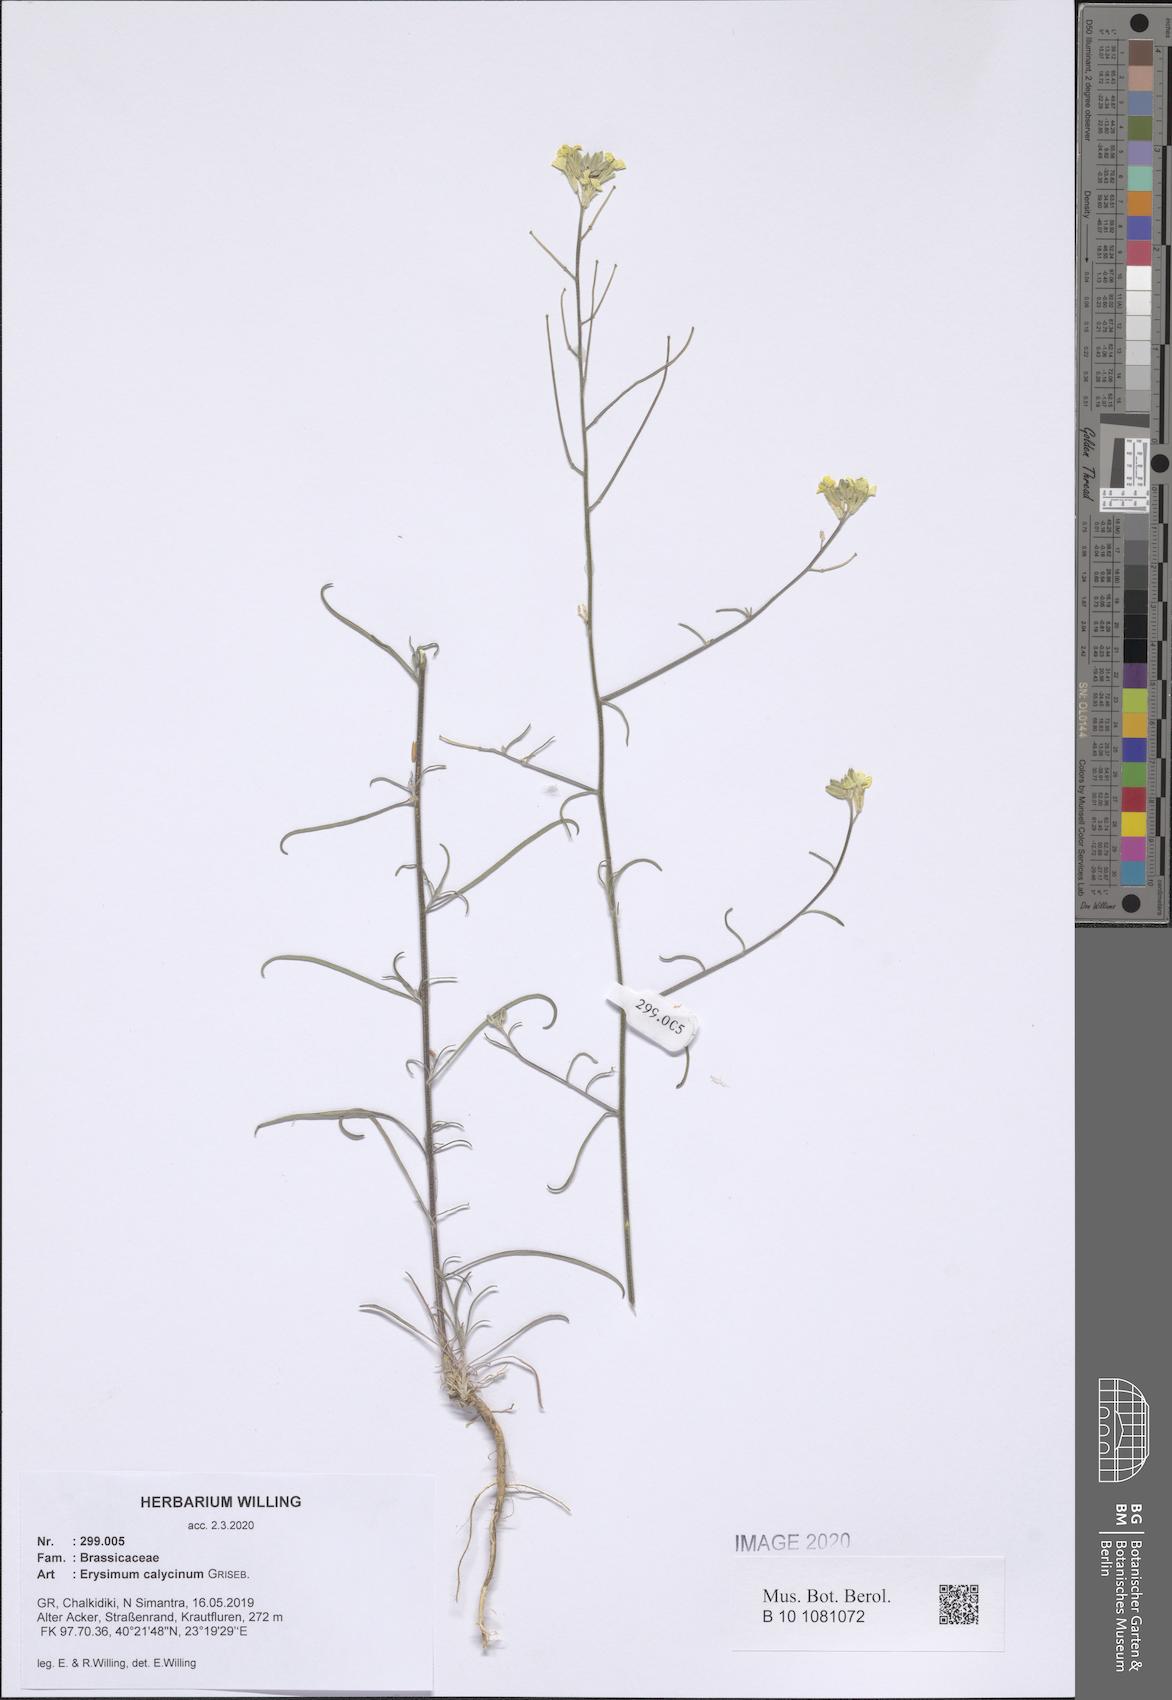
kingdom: Plantae
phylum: Tracheophyta
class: Magnoliopsida
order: Brassicales
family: Brassicaceae
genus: Erysimum
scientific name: Erysimum calycinum
